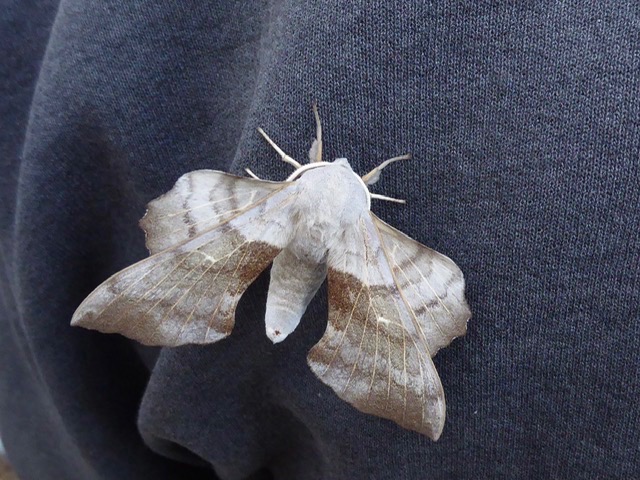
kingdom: Animalia
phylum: Arthropoda
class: Insecta
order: Lepidoptera
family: Sphingidae
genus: Laothoe
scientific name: Laothoe populi
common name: Poppelsværmer
